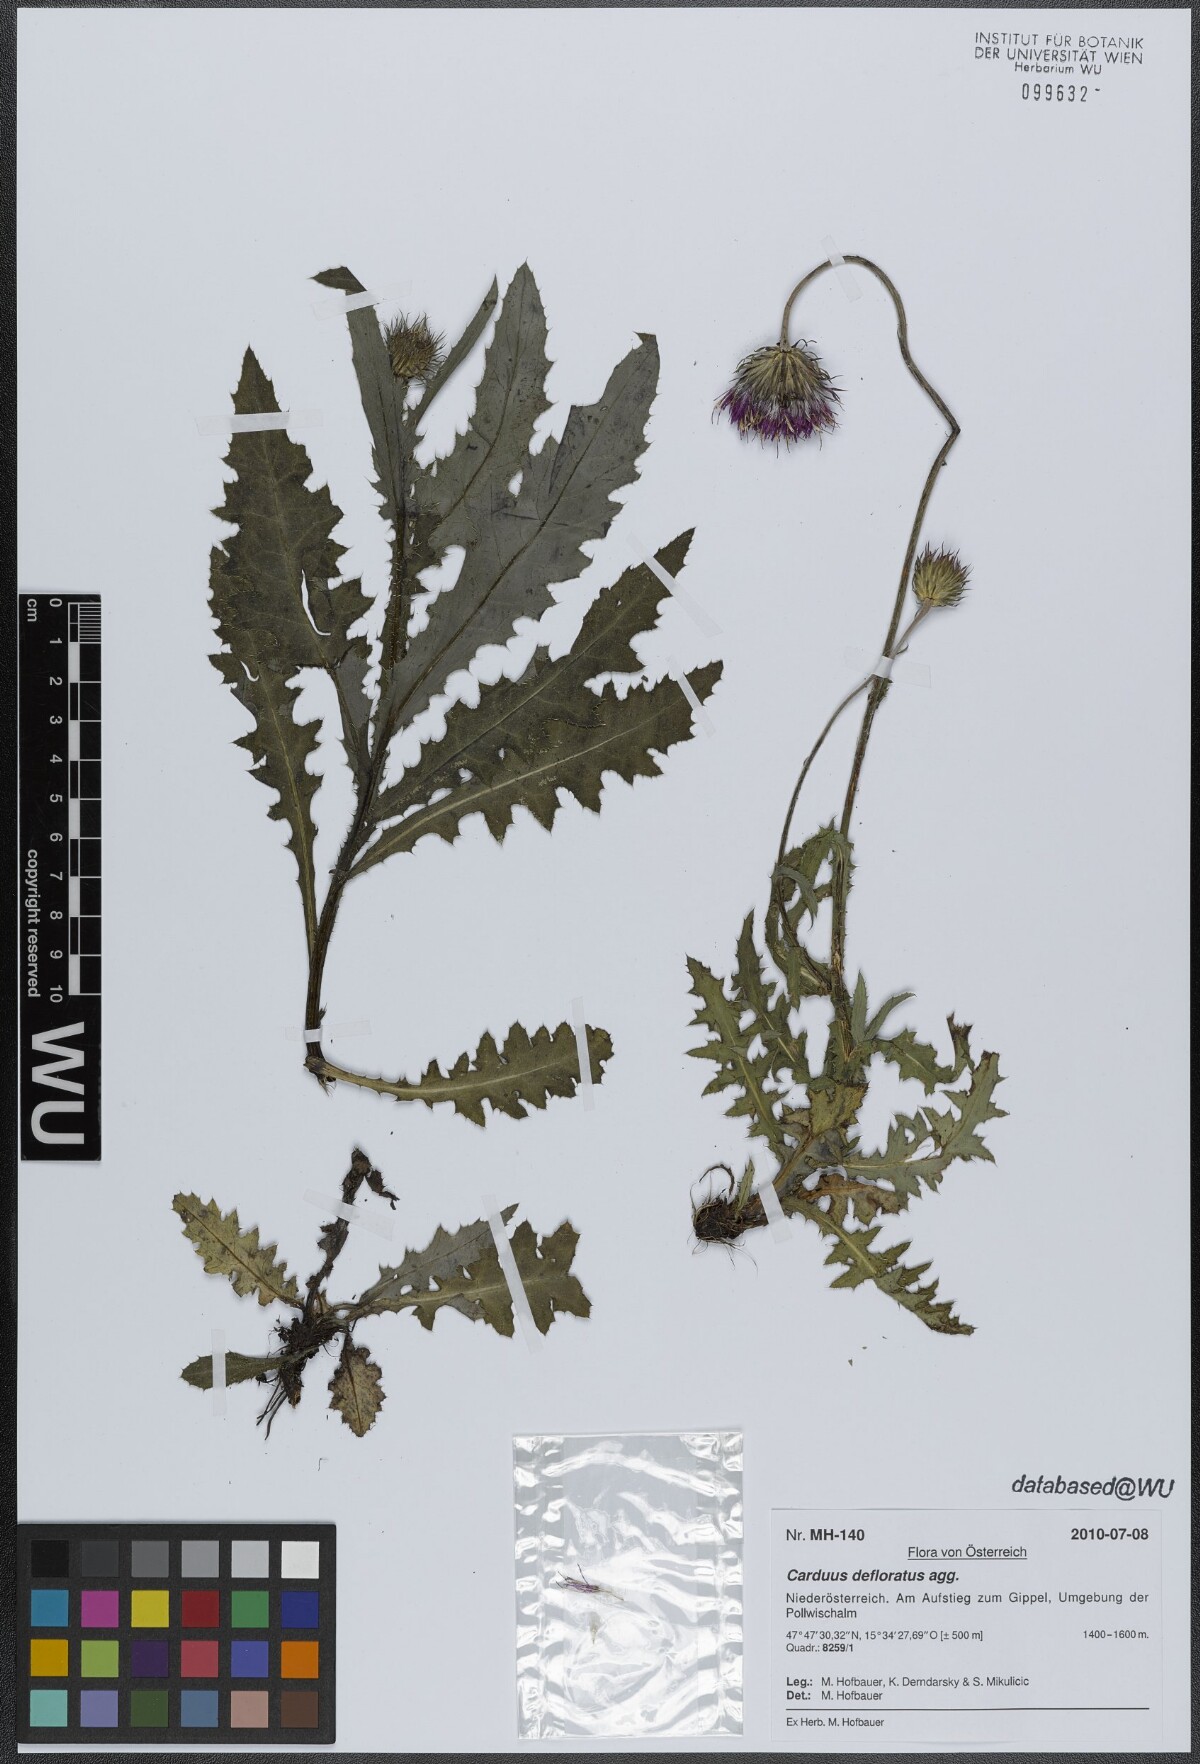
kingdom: Plantae
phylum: Tracheophyta
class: Magnoliopsida
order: Asterales
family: Asteraceae
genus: Carduus
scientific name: Carduus defloratus
